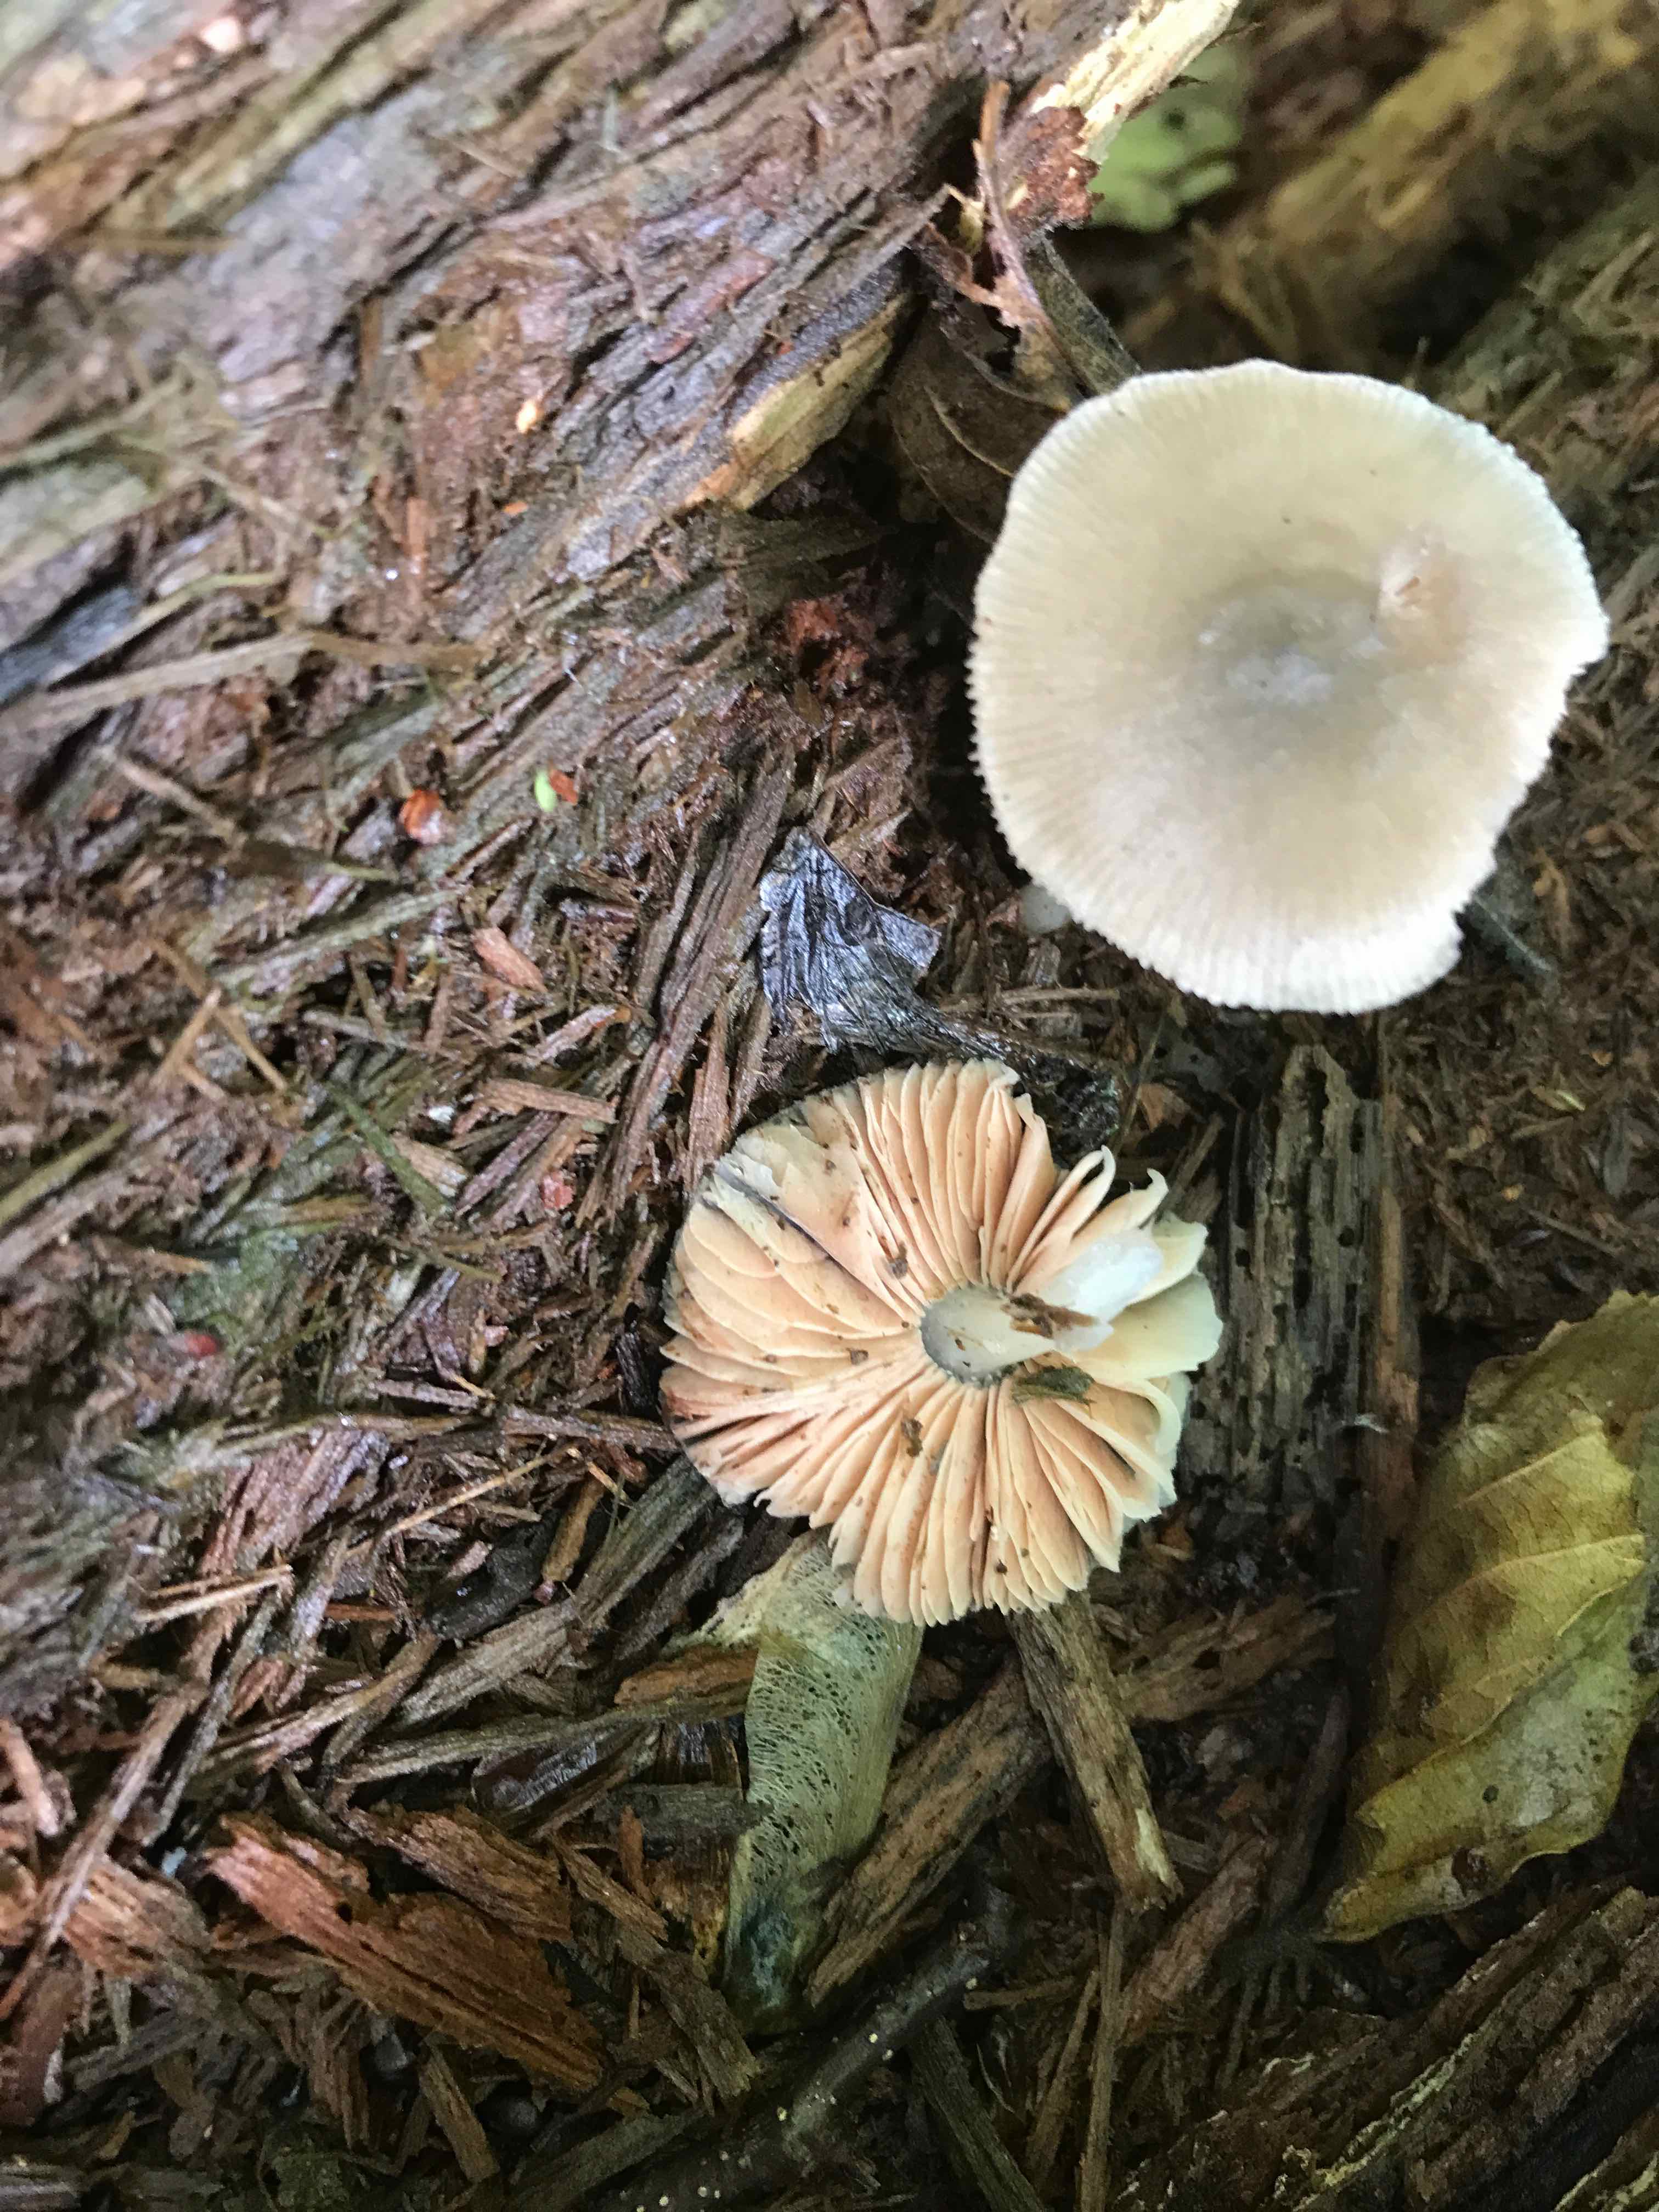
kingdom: Fungi
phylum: Basidiomycota
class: Agaricomycetes
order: Agaricales
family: Pluteaceae
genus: Pluteus
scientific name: Pluteus salicinus
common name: stiv skærmhat
